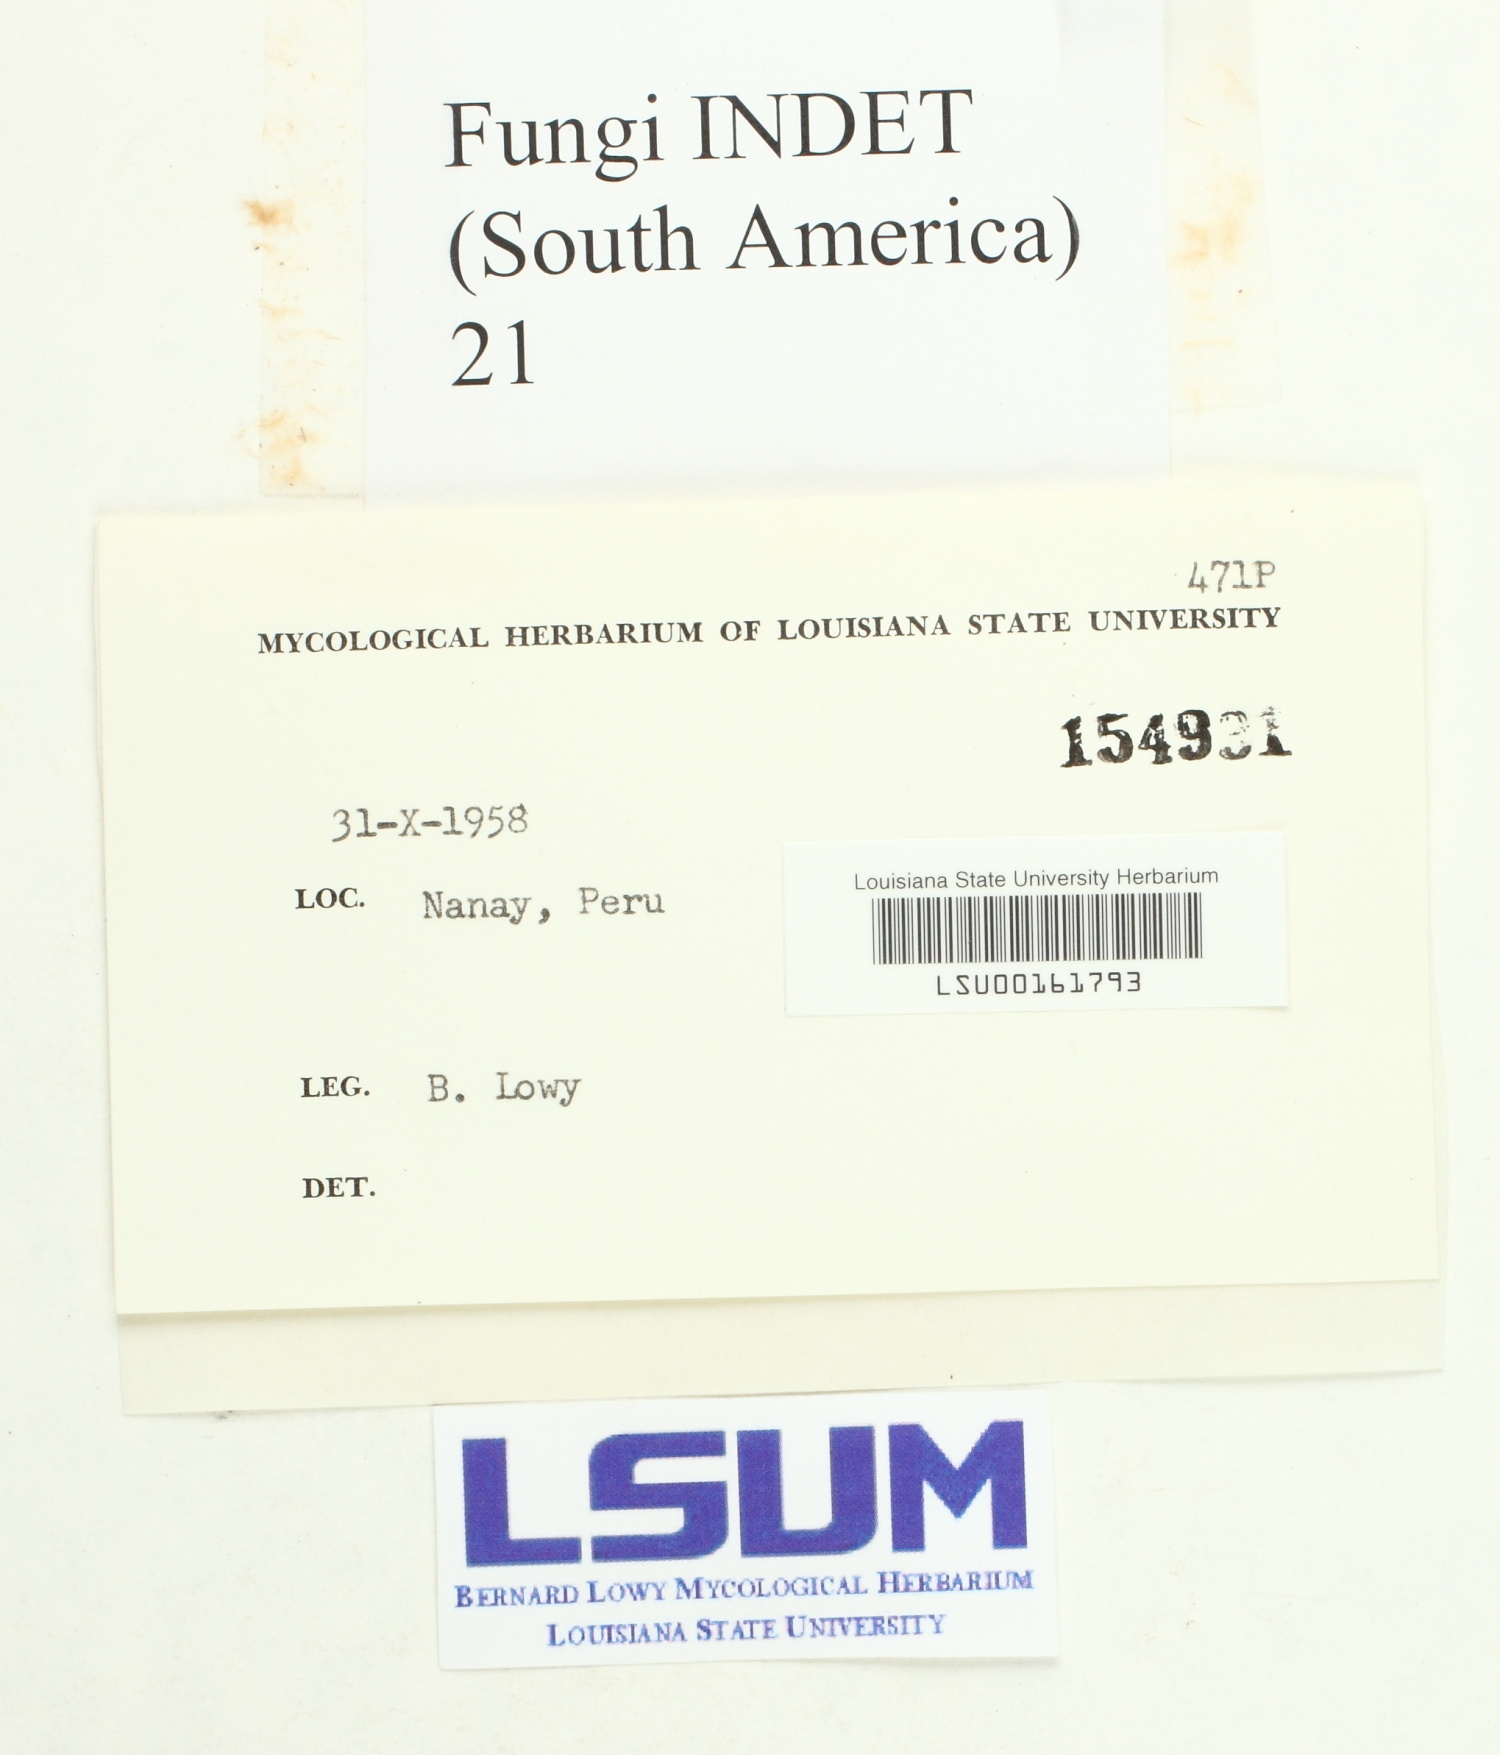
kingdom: Fungi
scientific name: Fungi
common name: Fungi
